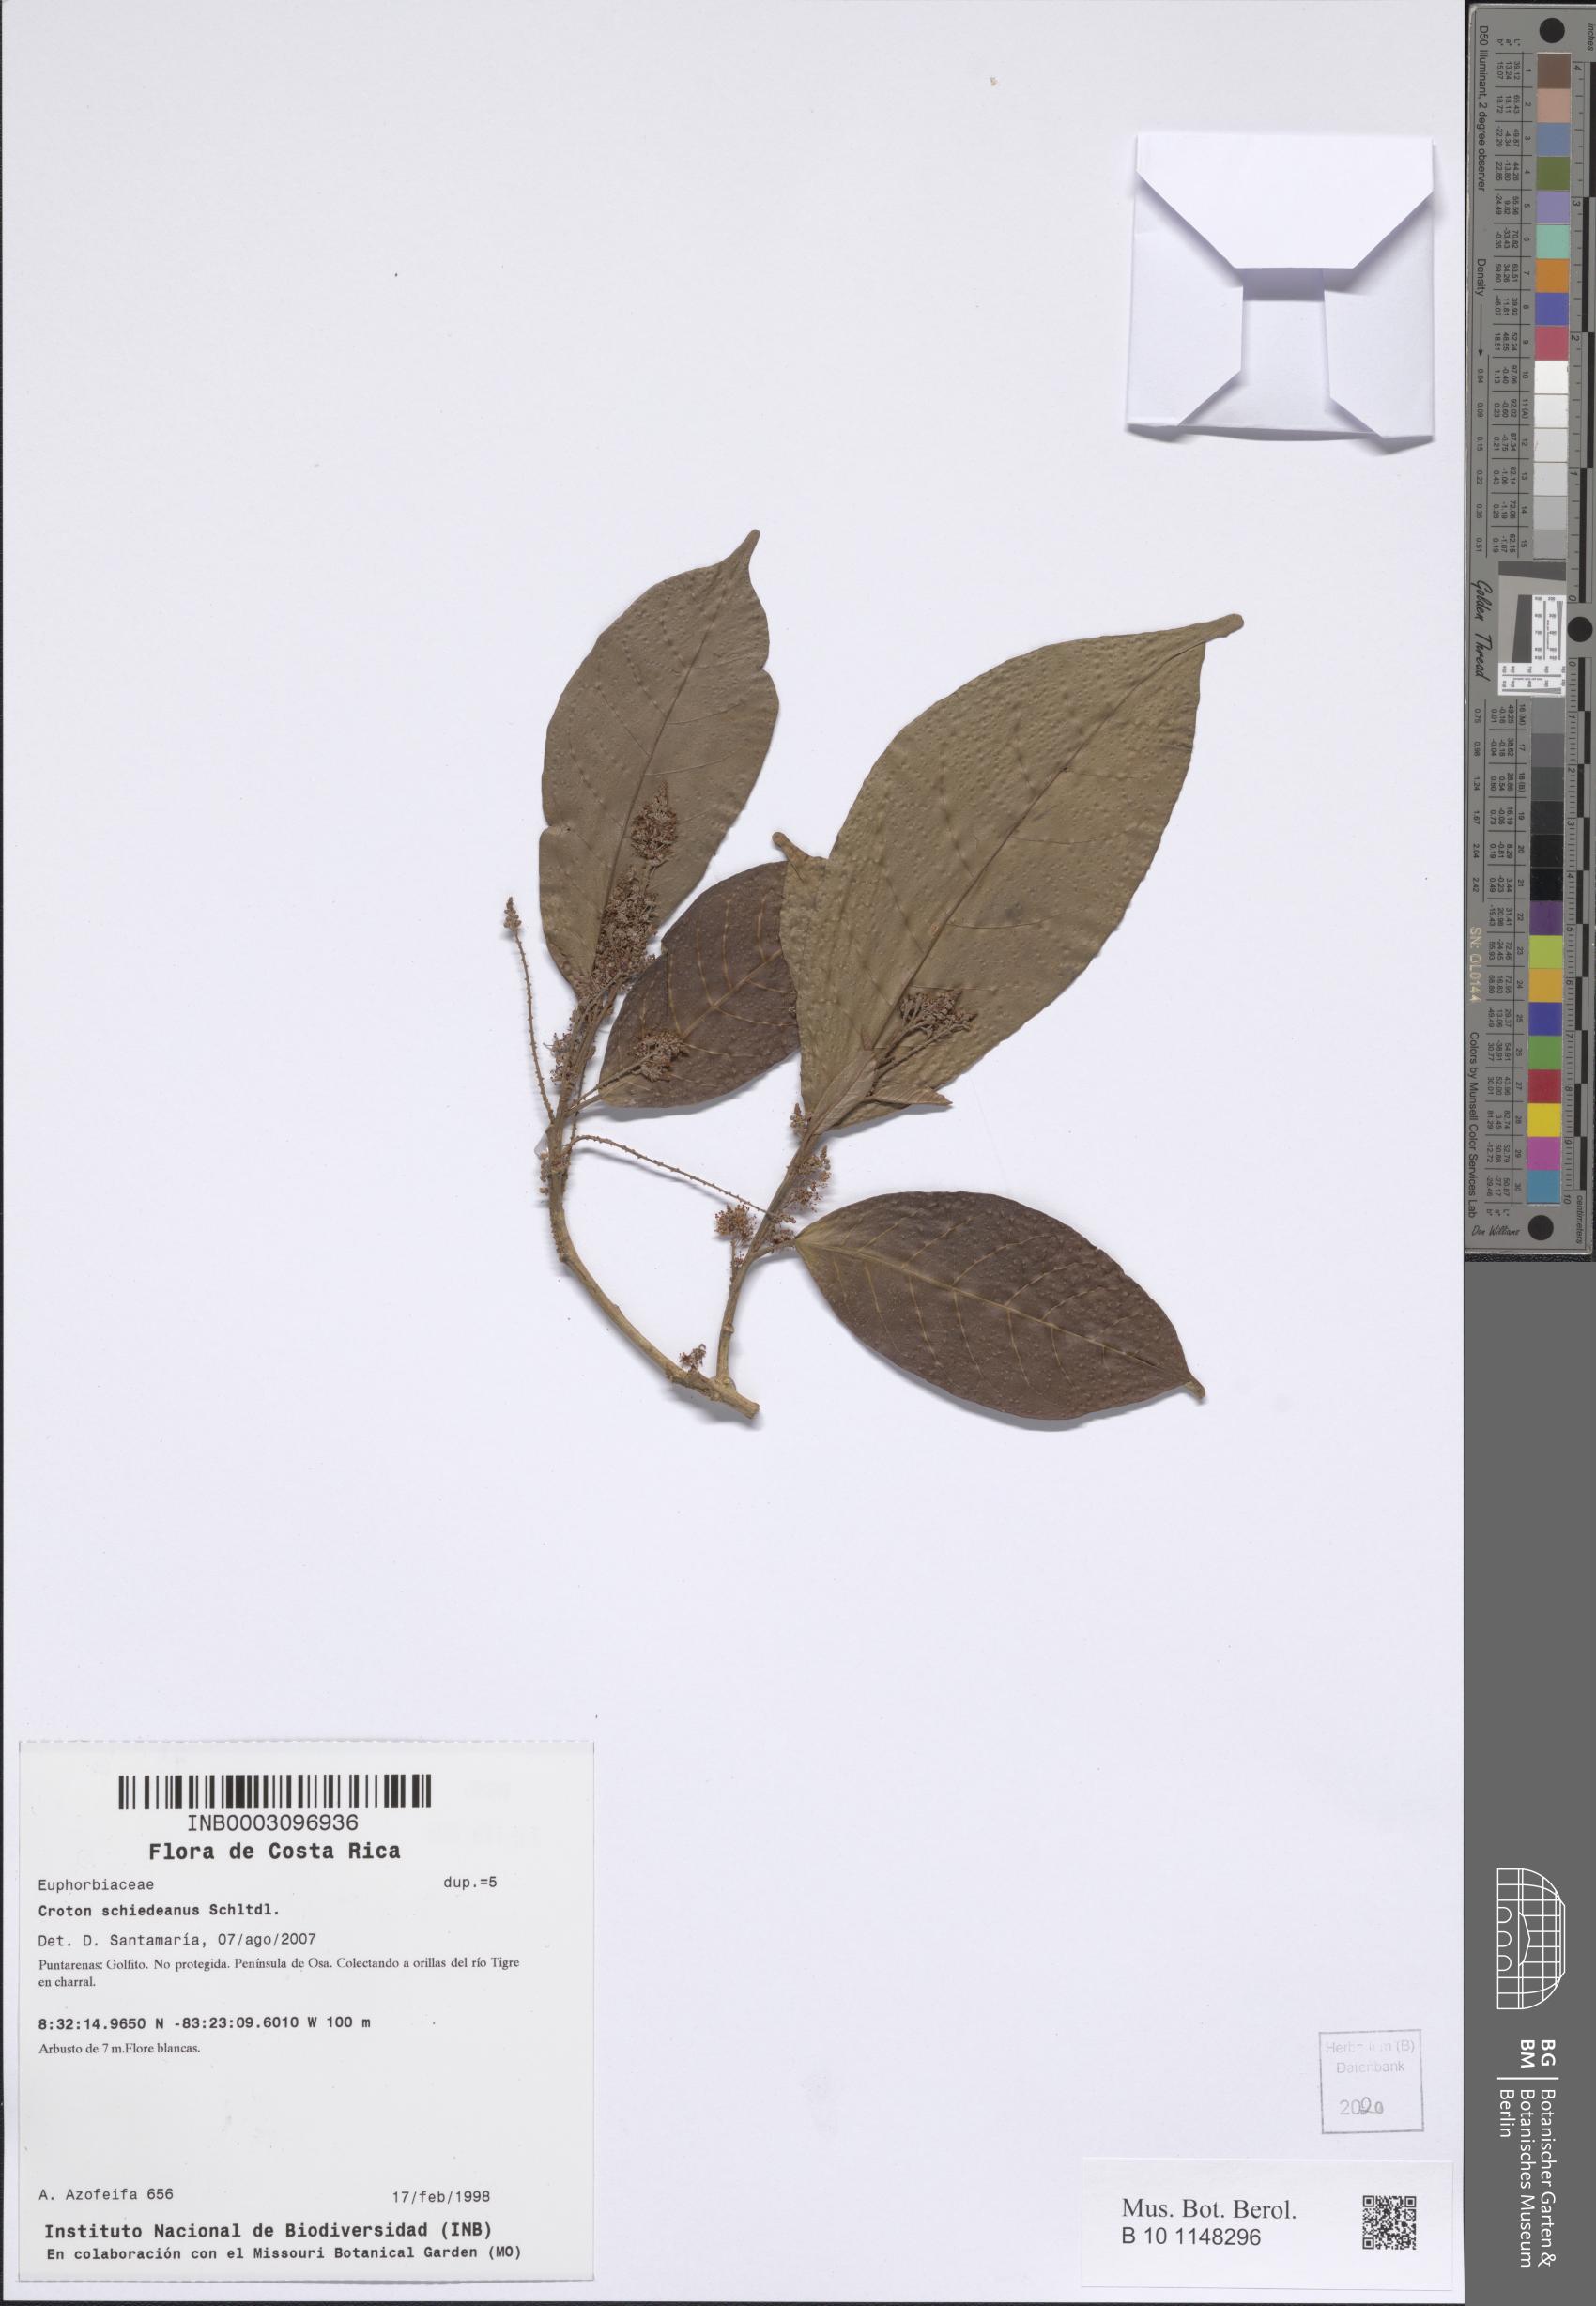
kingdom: Plantae
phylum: Tracheophyta
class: Magnoliopsida
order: Malpighiales
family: Euphorbiaceae
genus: Croton
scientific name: Croton schiedeanus
